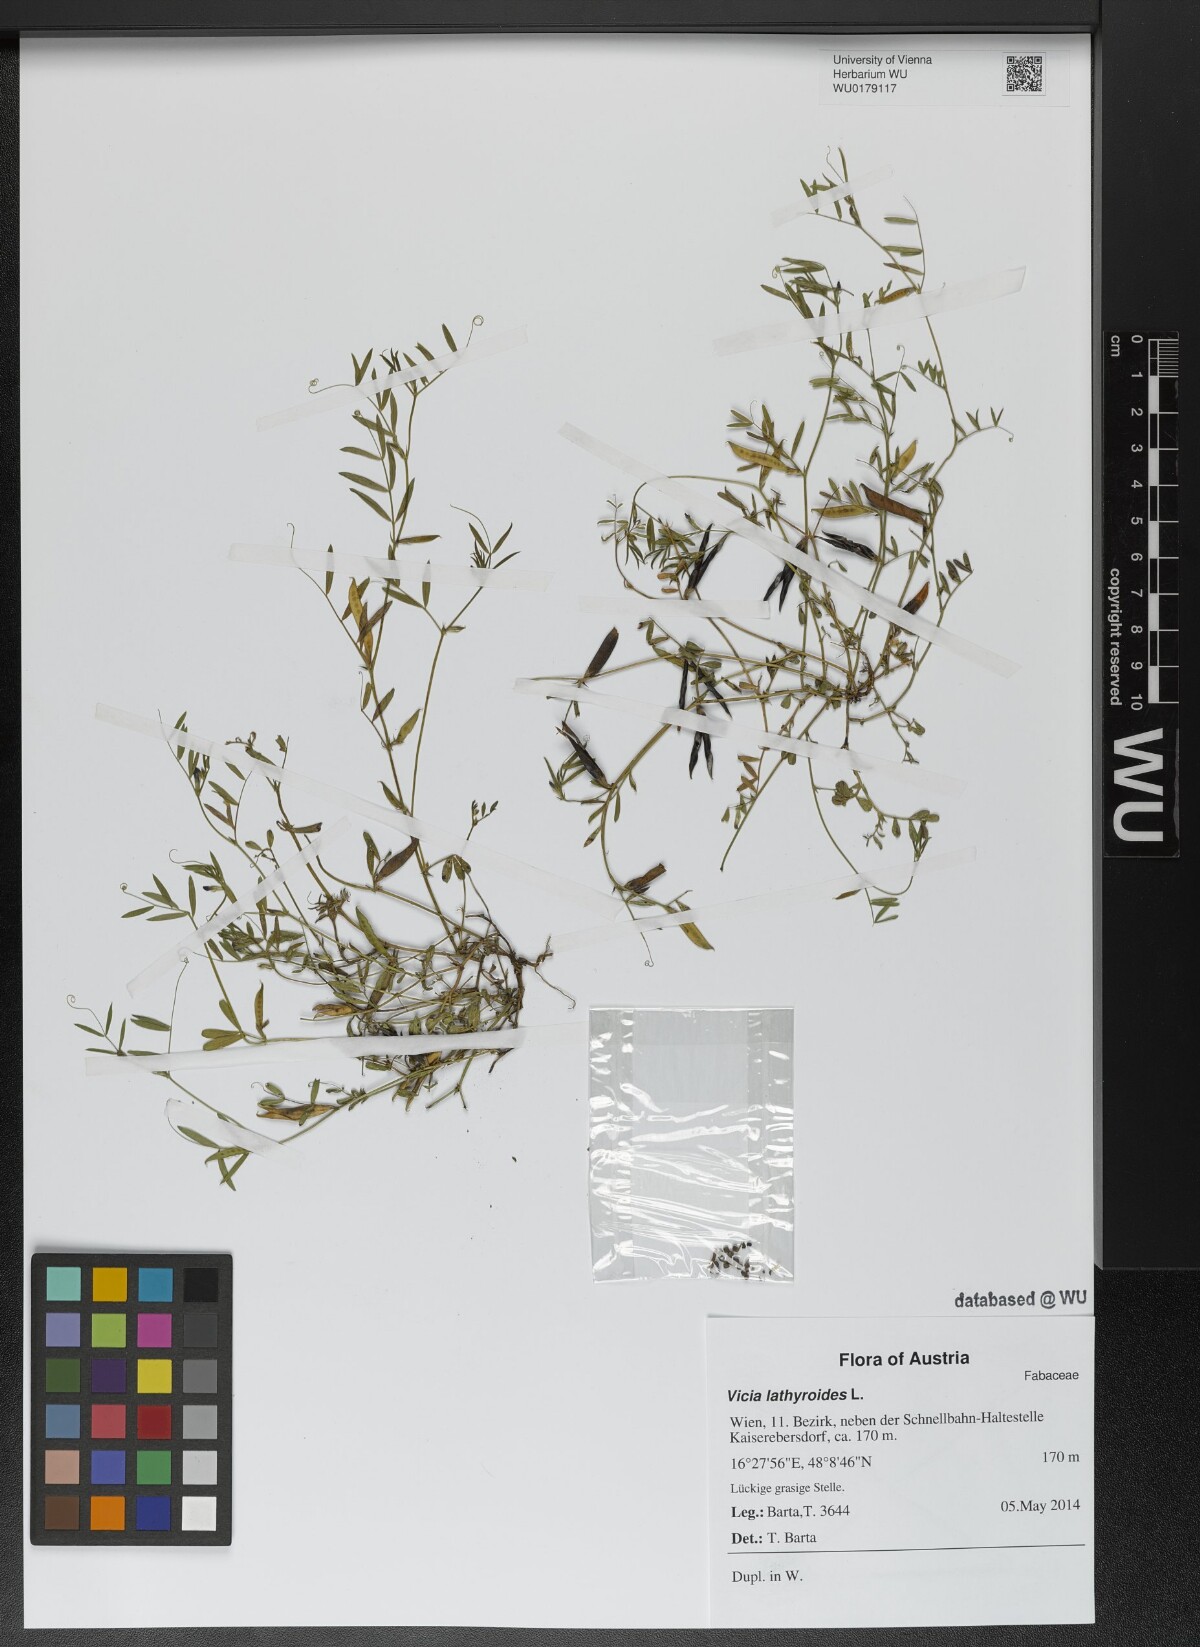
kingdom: Plantae
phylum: Tracheophyta
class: Magnoliopsida
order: Fabales
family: Fabaceae
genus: Vicia
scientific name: Vicia lathyroides
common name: Spring vetch
